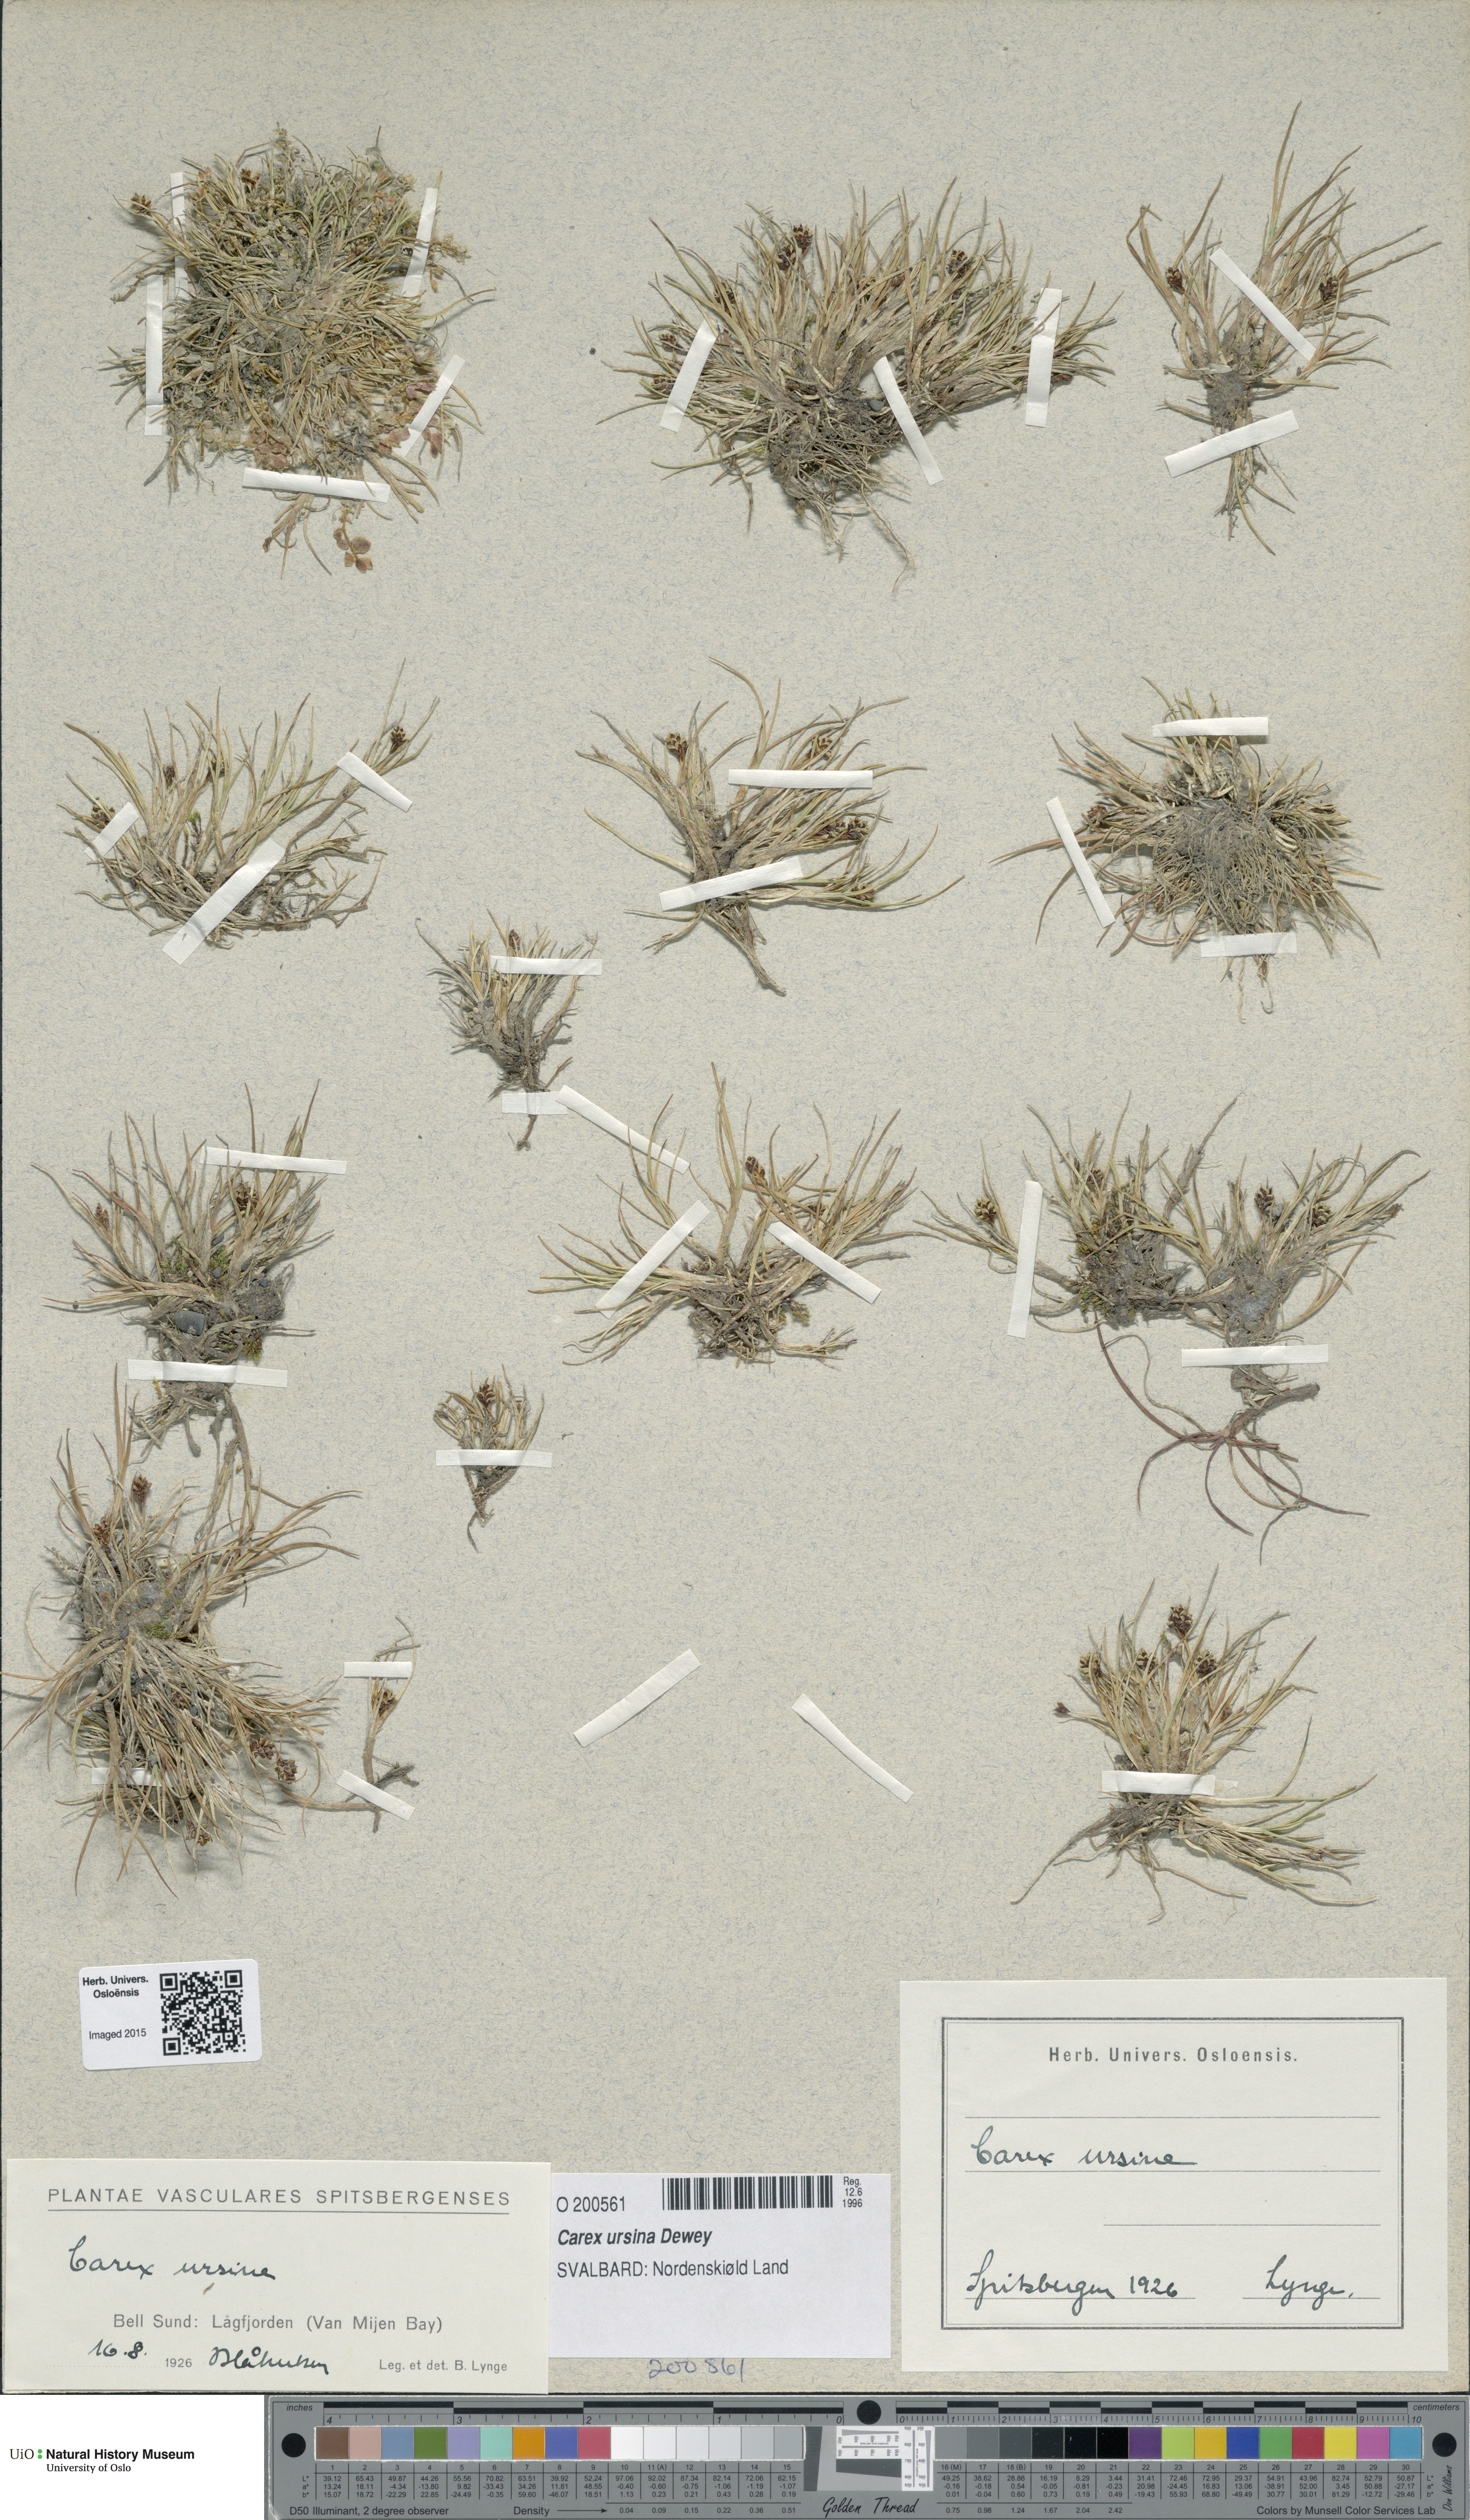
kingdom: Plantae
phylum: Tracheophyta
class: Liliopsida
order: Poales
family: Cyperaceae
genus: Carex
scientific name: Carex ursina
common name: Bear sedge
